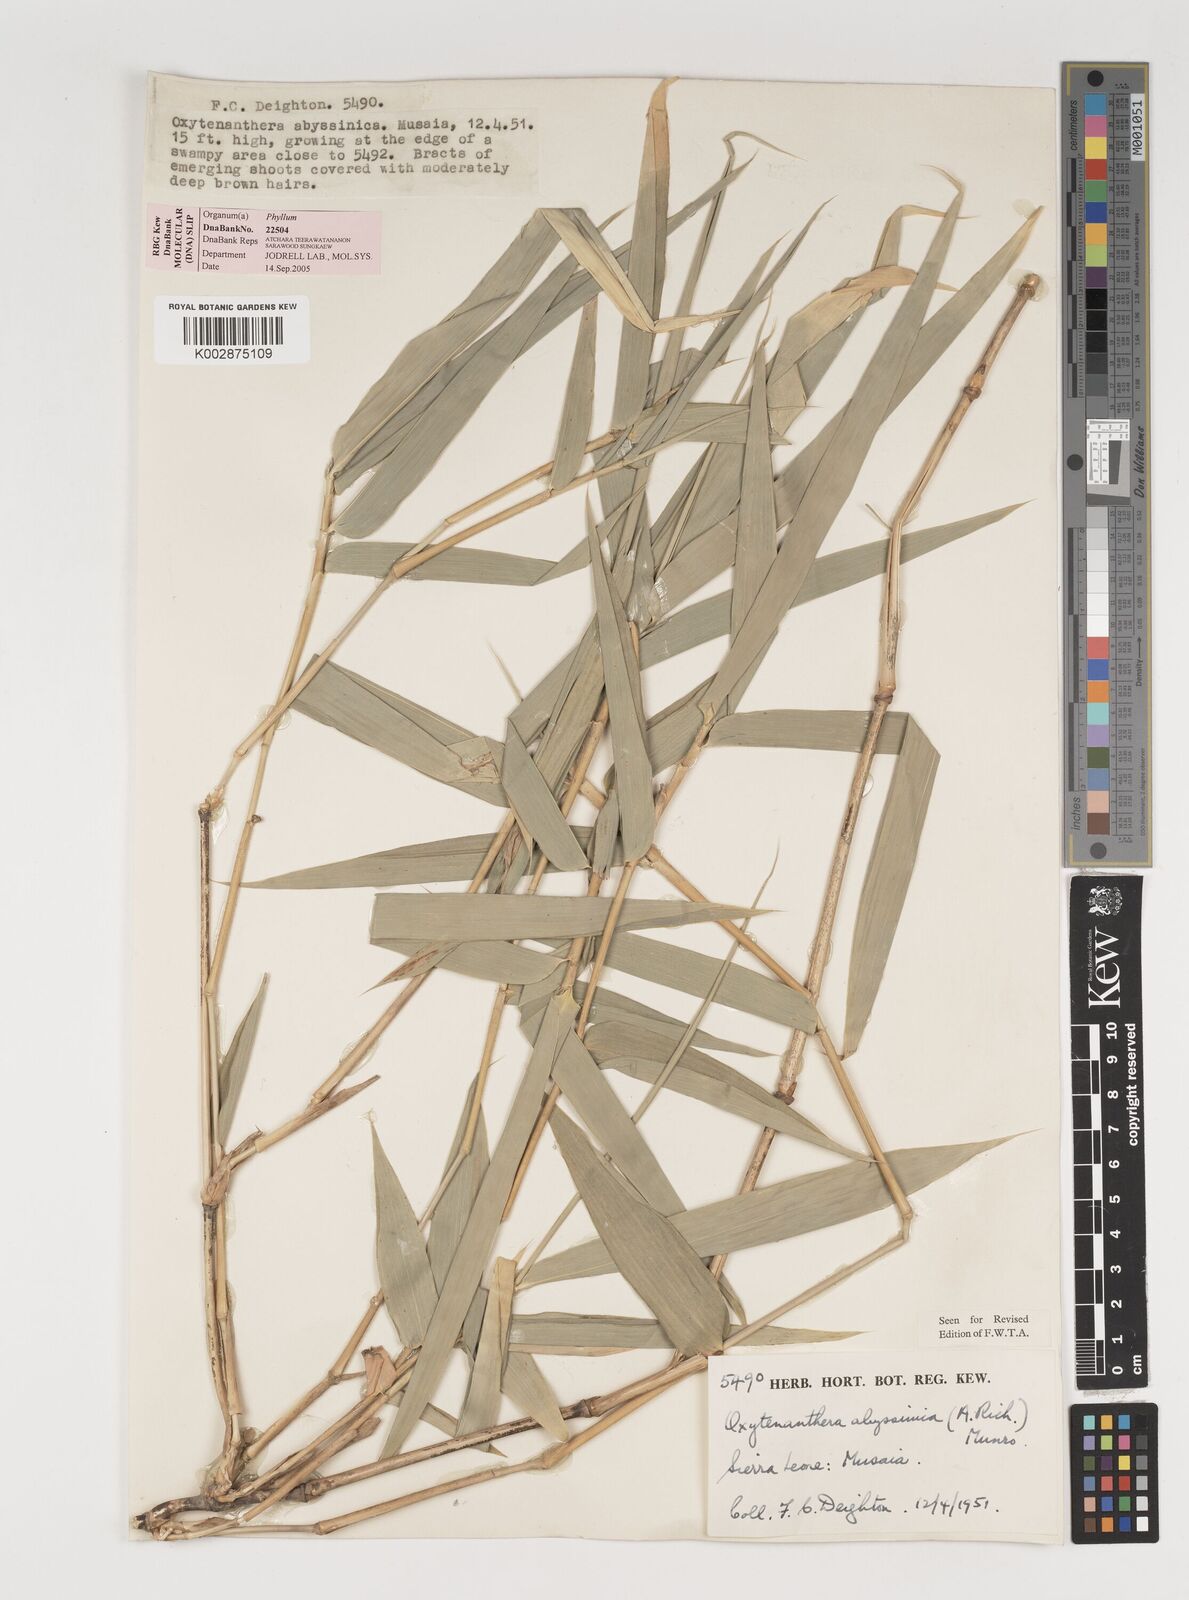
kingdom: Plantae
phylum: Tracheophyta
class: Liliopsida
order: Poales
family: Poaceae
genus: Oxytenanthera
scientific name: Oxytenanthera abyssinica
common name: Wine bamboo
